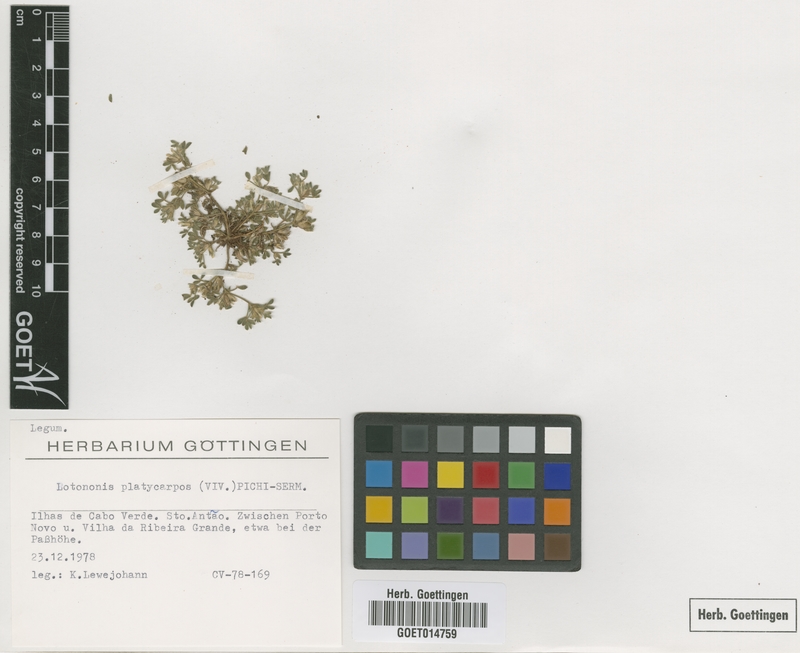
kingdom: Plantae
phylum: Tracheophyta
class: Magnoliopsida
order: Fabales
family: Fabaceae
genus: Leobordea
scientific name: Leobordea platycarpa
